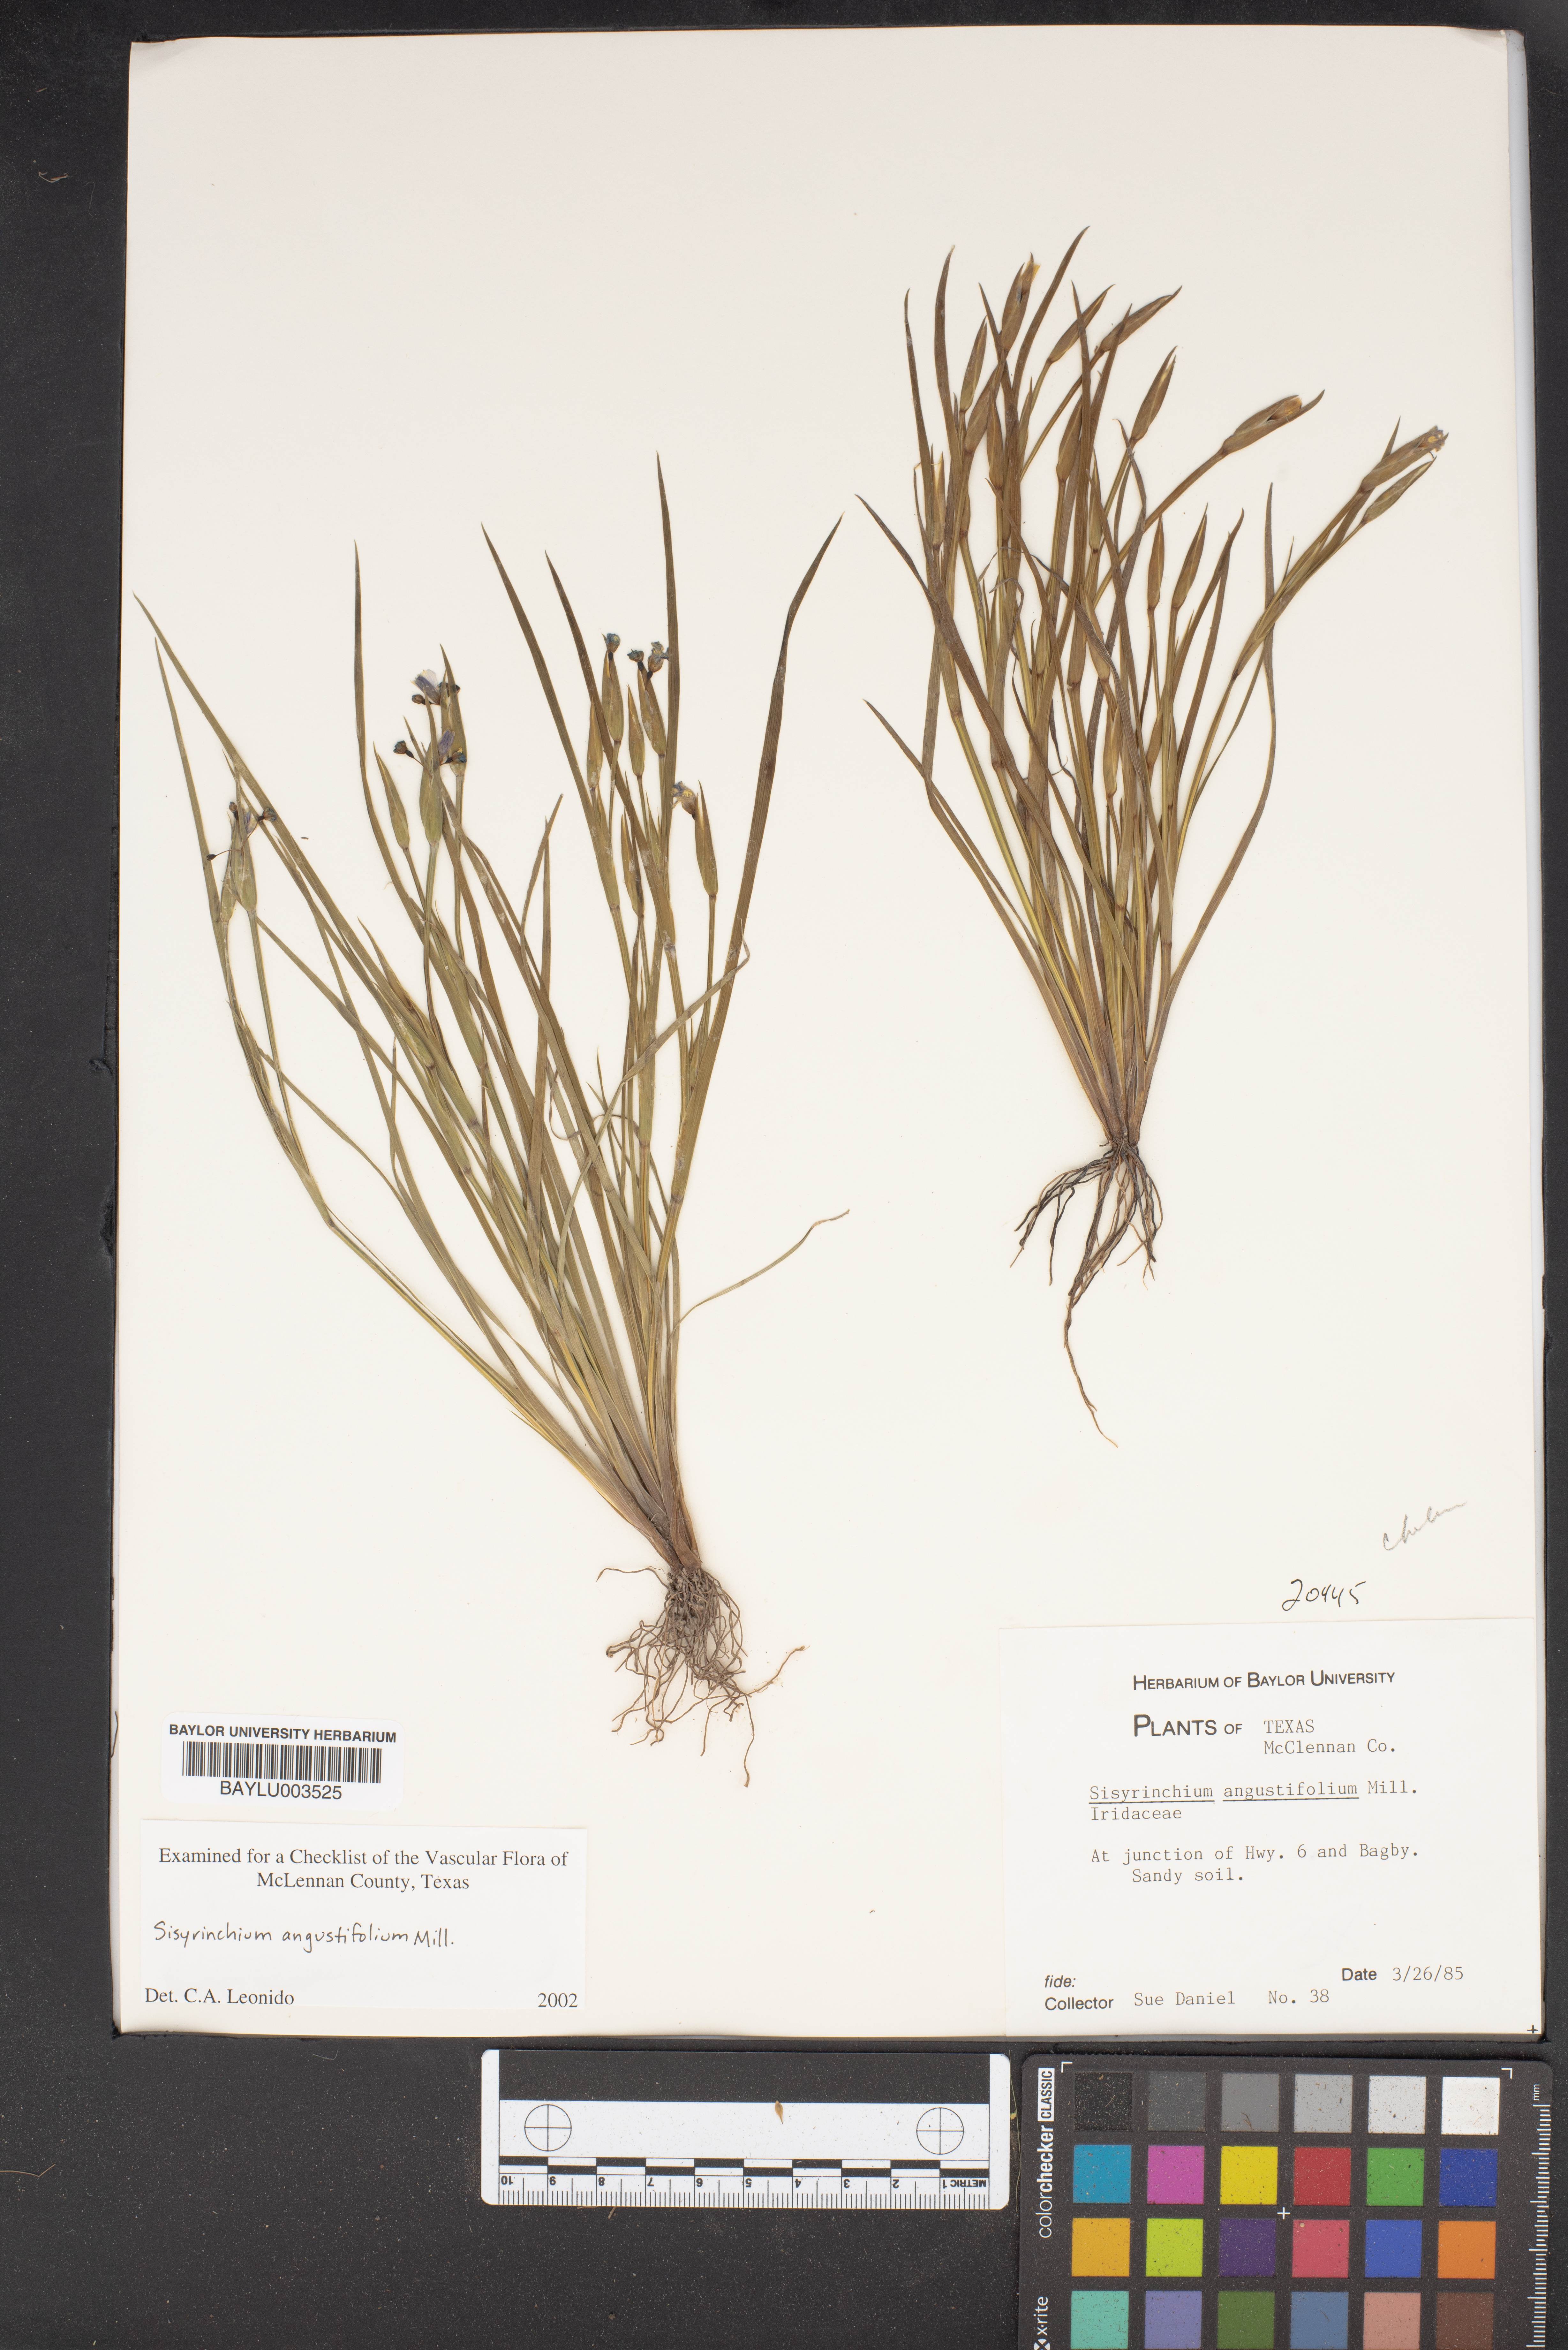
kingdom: Plantae
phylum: Tracheophyta
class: Liliopsida
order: Asparagales
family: Iridaceae
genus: Sisyrinchium
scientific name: Sisyrinchium angustifolium
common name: Narrow-leaf blue-eyed-grass
